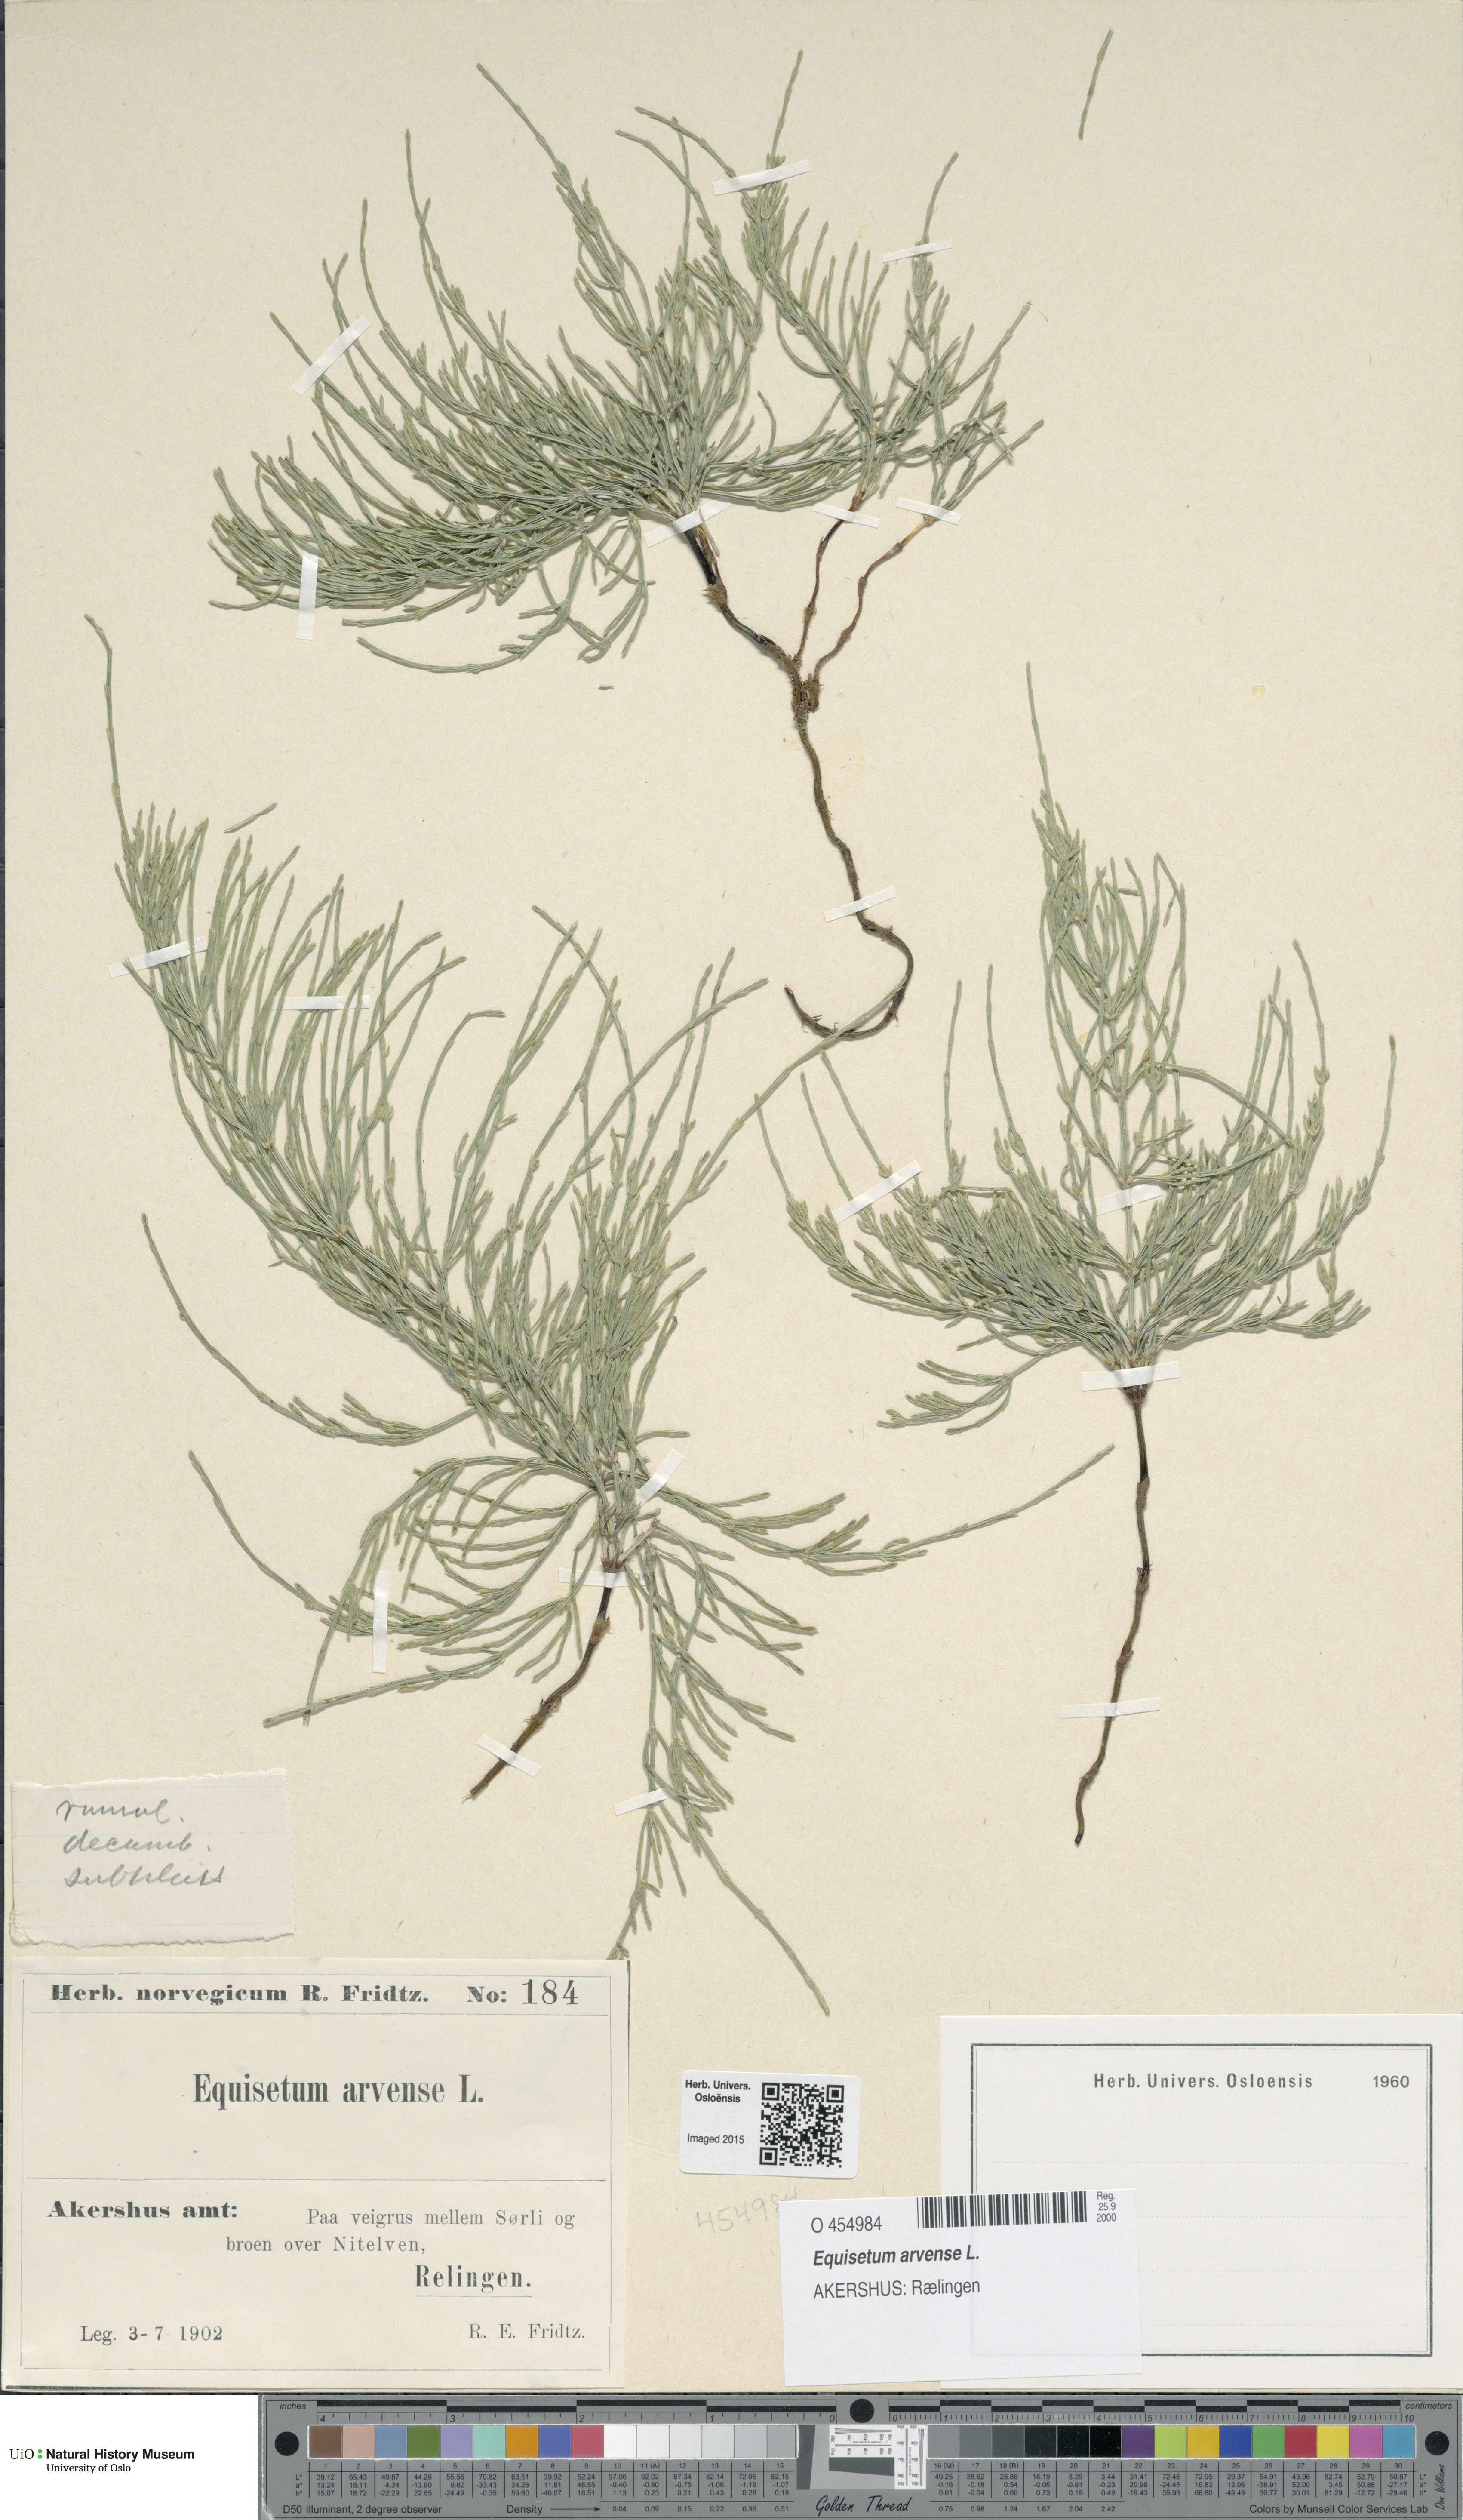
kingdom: Plantae
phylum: Tracheophyta
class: Polypodiopsida
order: Equisetales
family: Equisetaceae
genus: Equisetum
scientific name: Equisetum arvense
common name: Field horsetail
